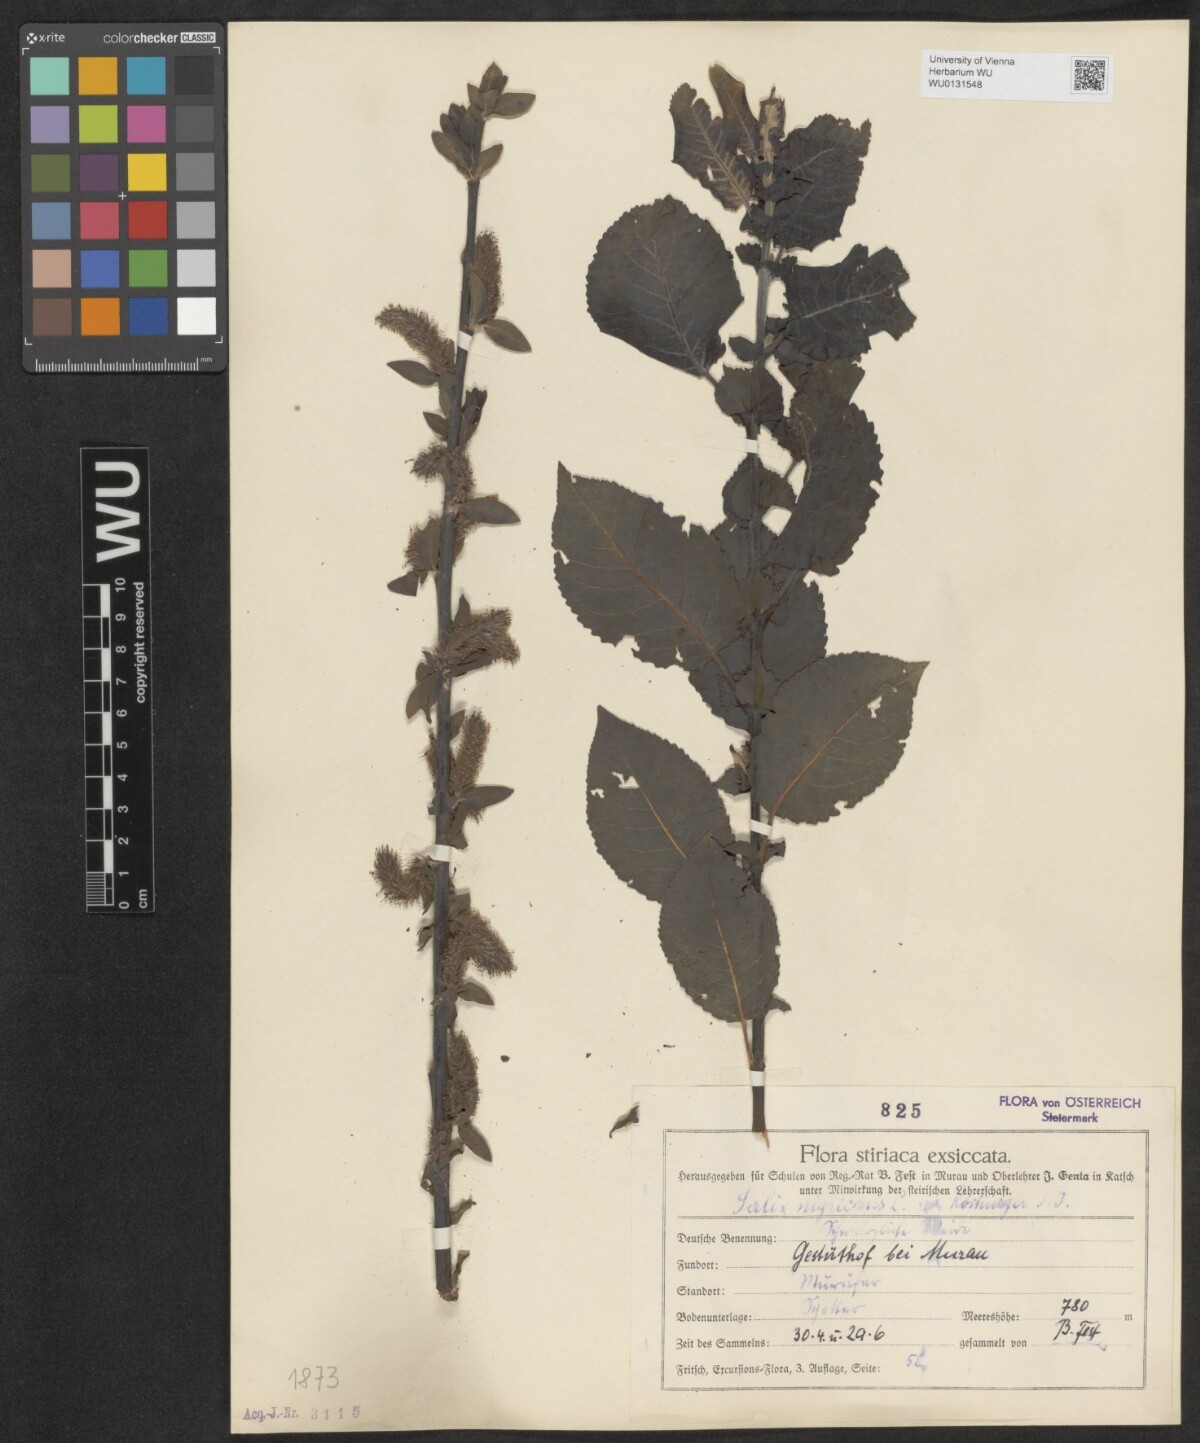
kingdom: Plantae
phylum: Tracheophyta
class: Magnoliopsida
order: Malpighiales
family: Salicaceae
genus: Salix
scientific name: Salix myrsinifolia
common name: Dark-leaved willow
